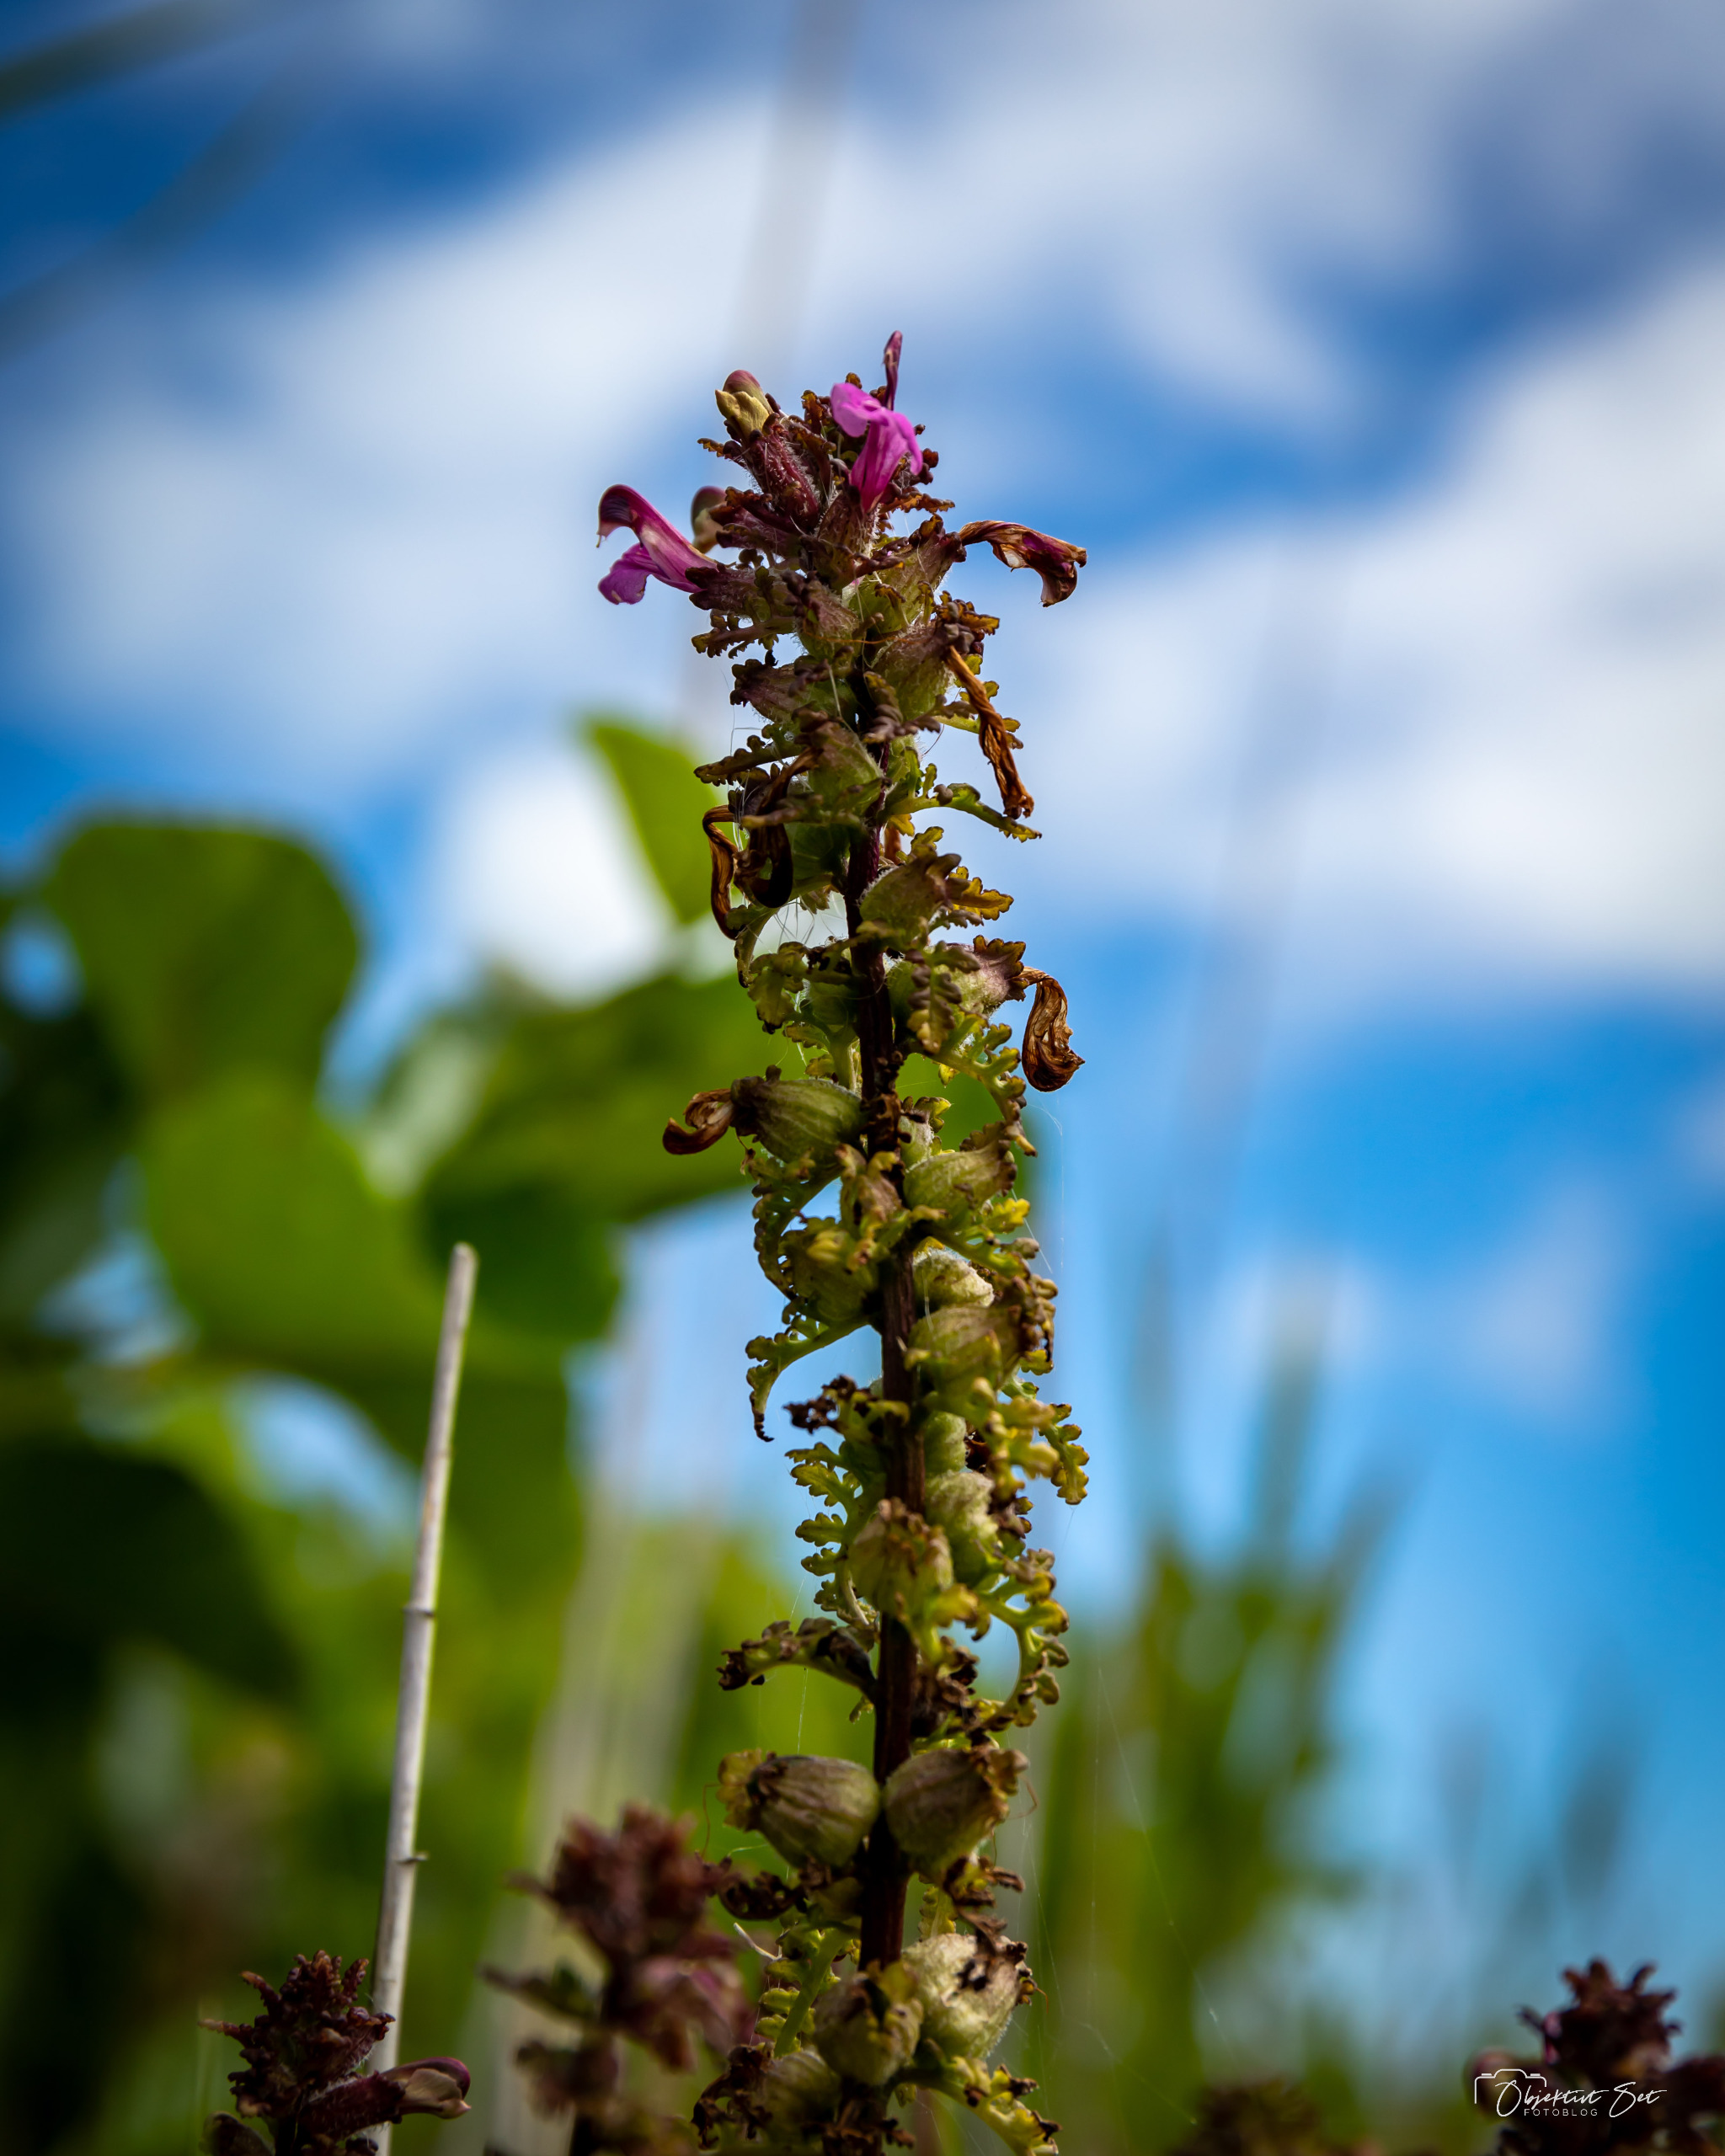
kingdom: Plantae
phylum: Tracheophyta
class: Magnoliopsida
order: Lamiales
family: Orobanchaceae
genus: Pedicularis
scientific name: Pedicularis palustris
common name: Eng-troldurt
